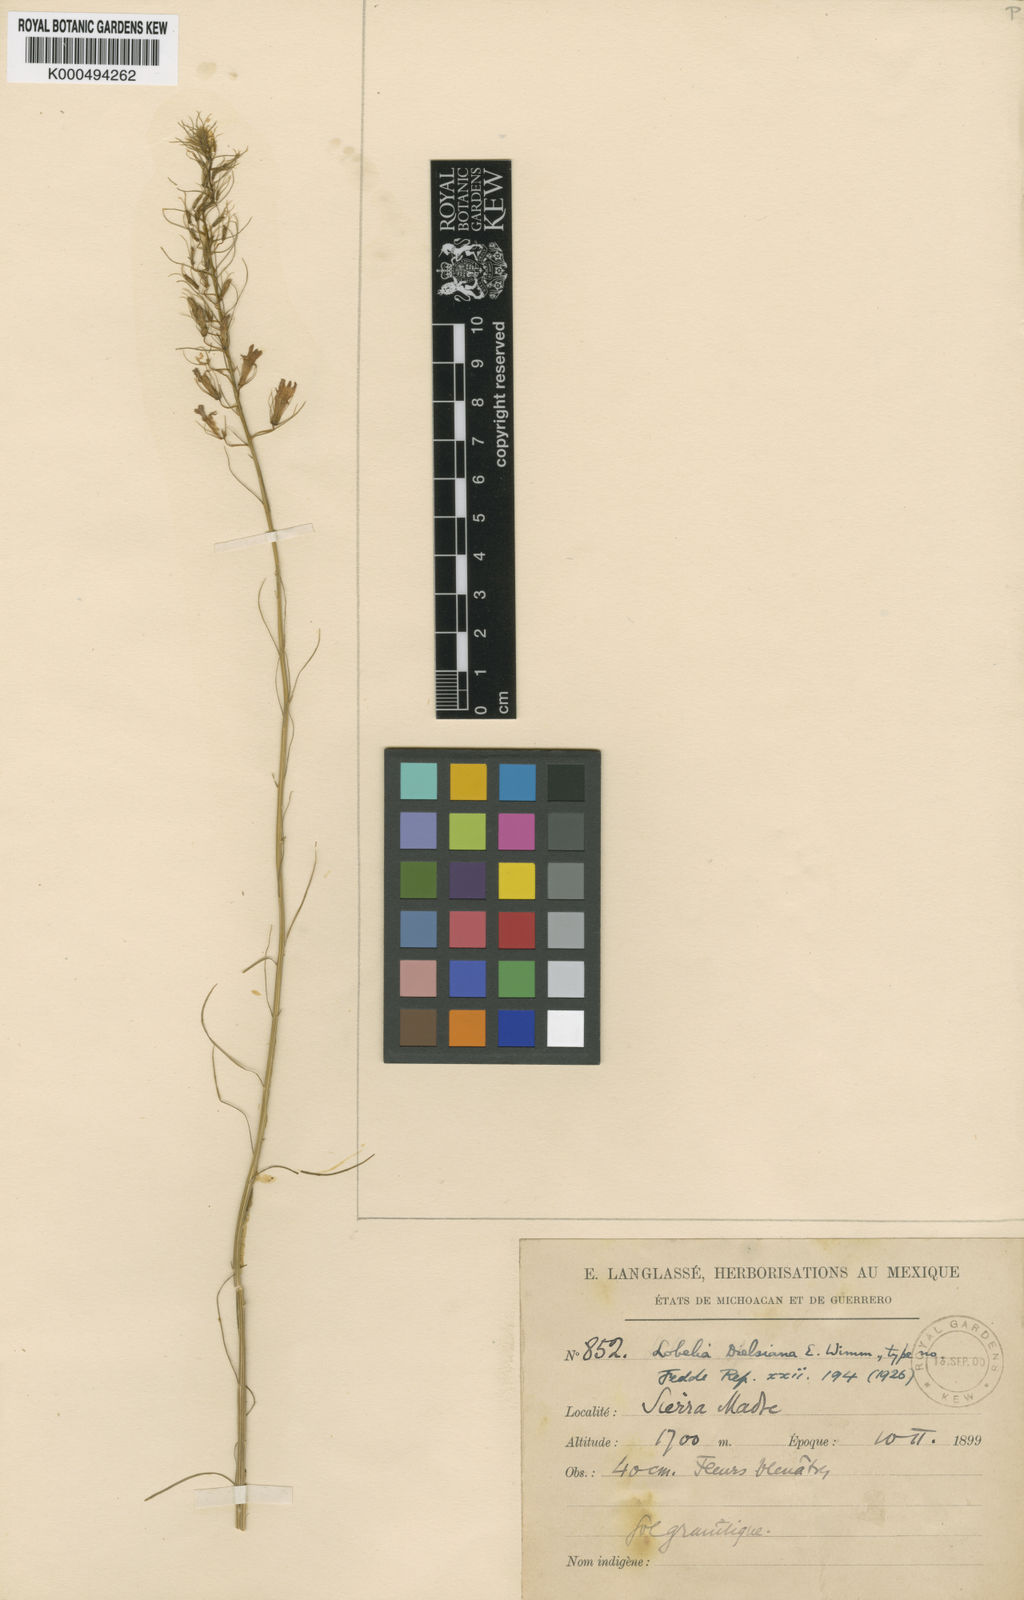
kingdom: Plantae
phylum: Tracheophyta
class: Magnoliopsida
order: Asterales
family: Campanulaceae
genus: Lobelia
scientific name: Lobelia dielsiana
